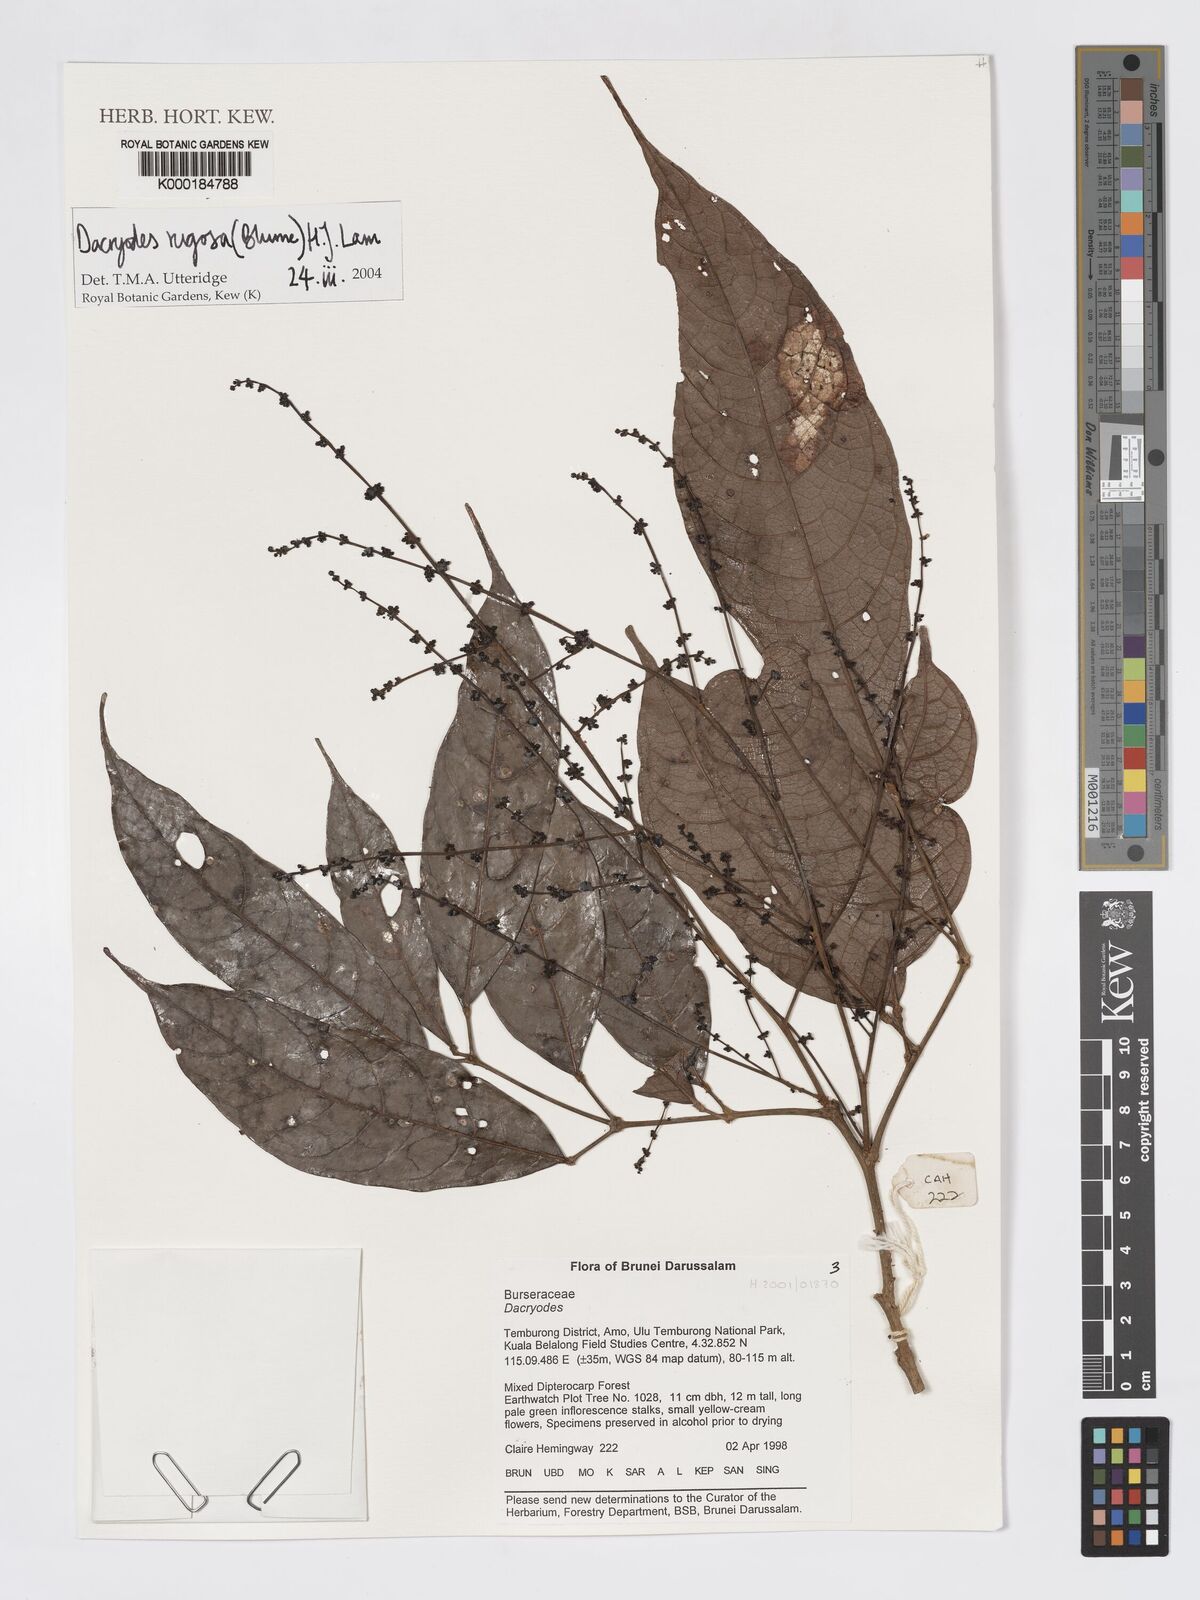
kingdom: Plantae
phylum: Tracheophyta
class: Magnoliopsida
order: Sapindales
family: Burseraceae
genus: Dacryodes
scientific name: Dacryodes rugosa
